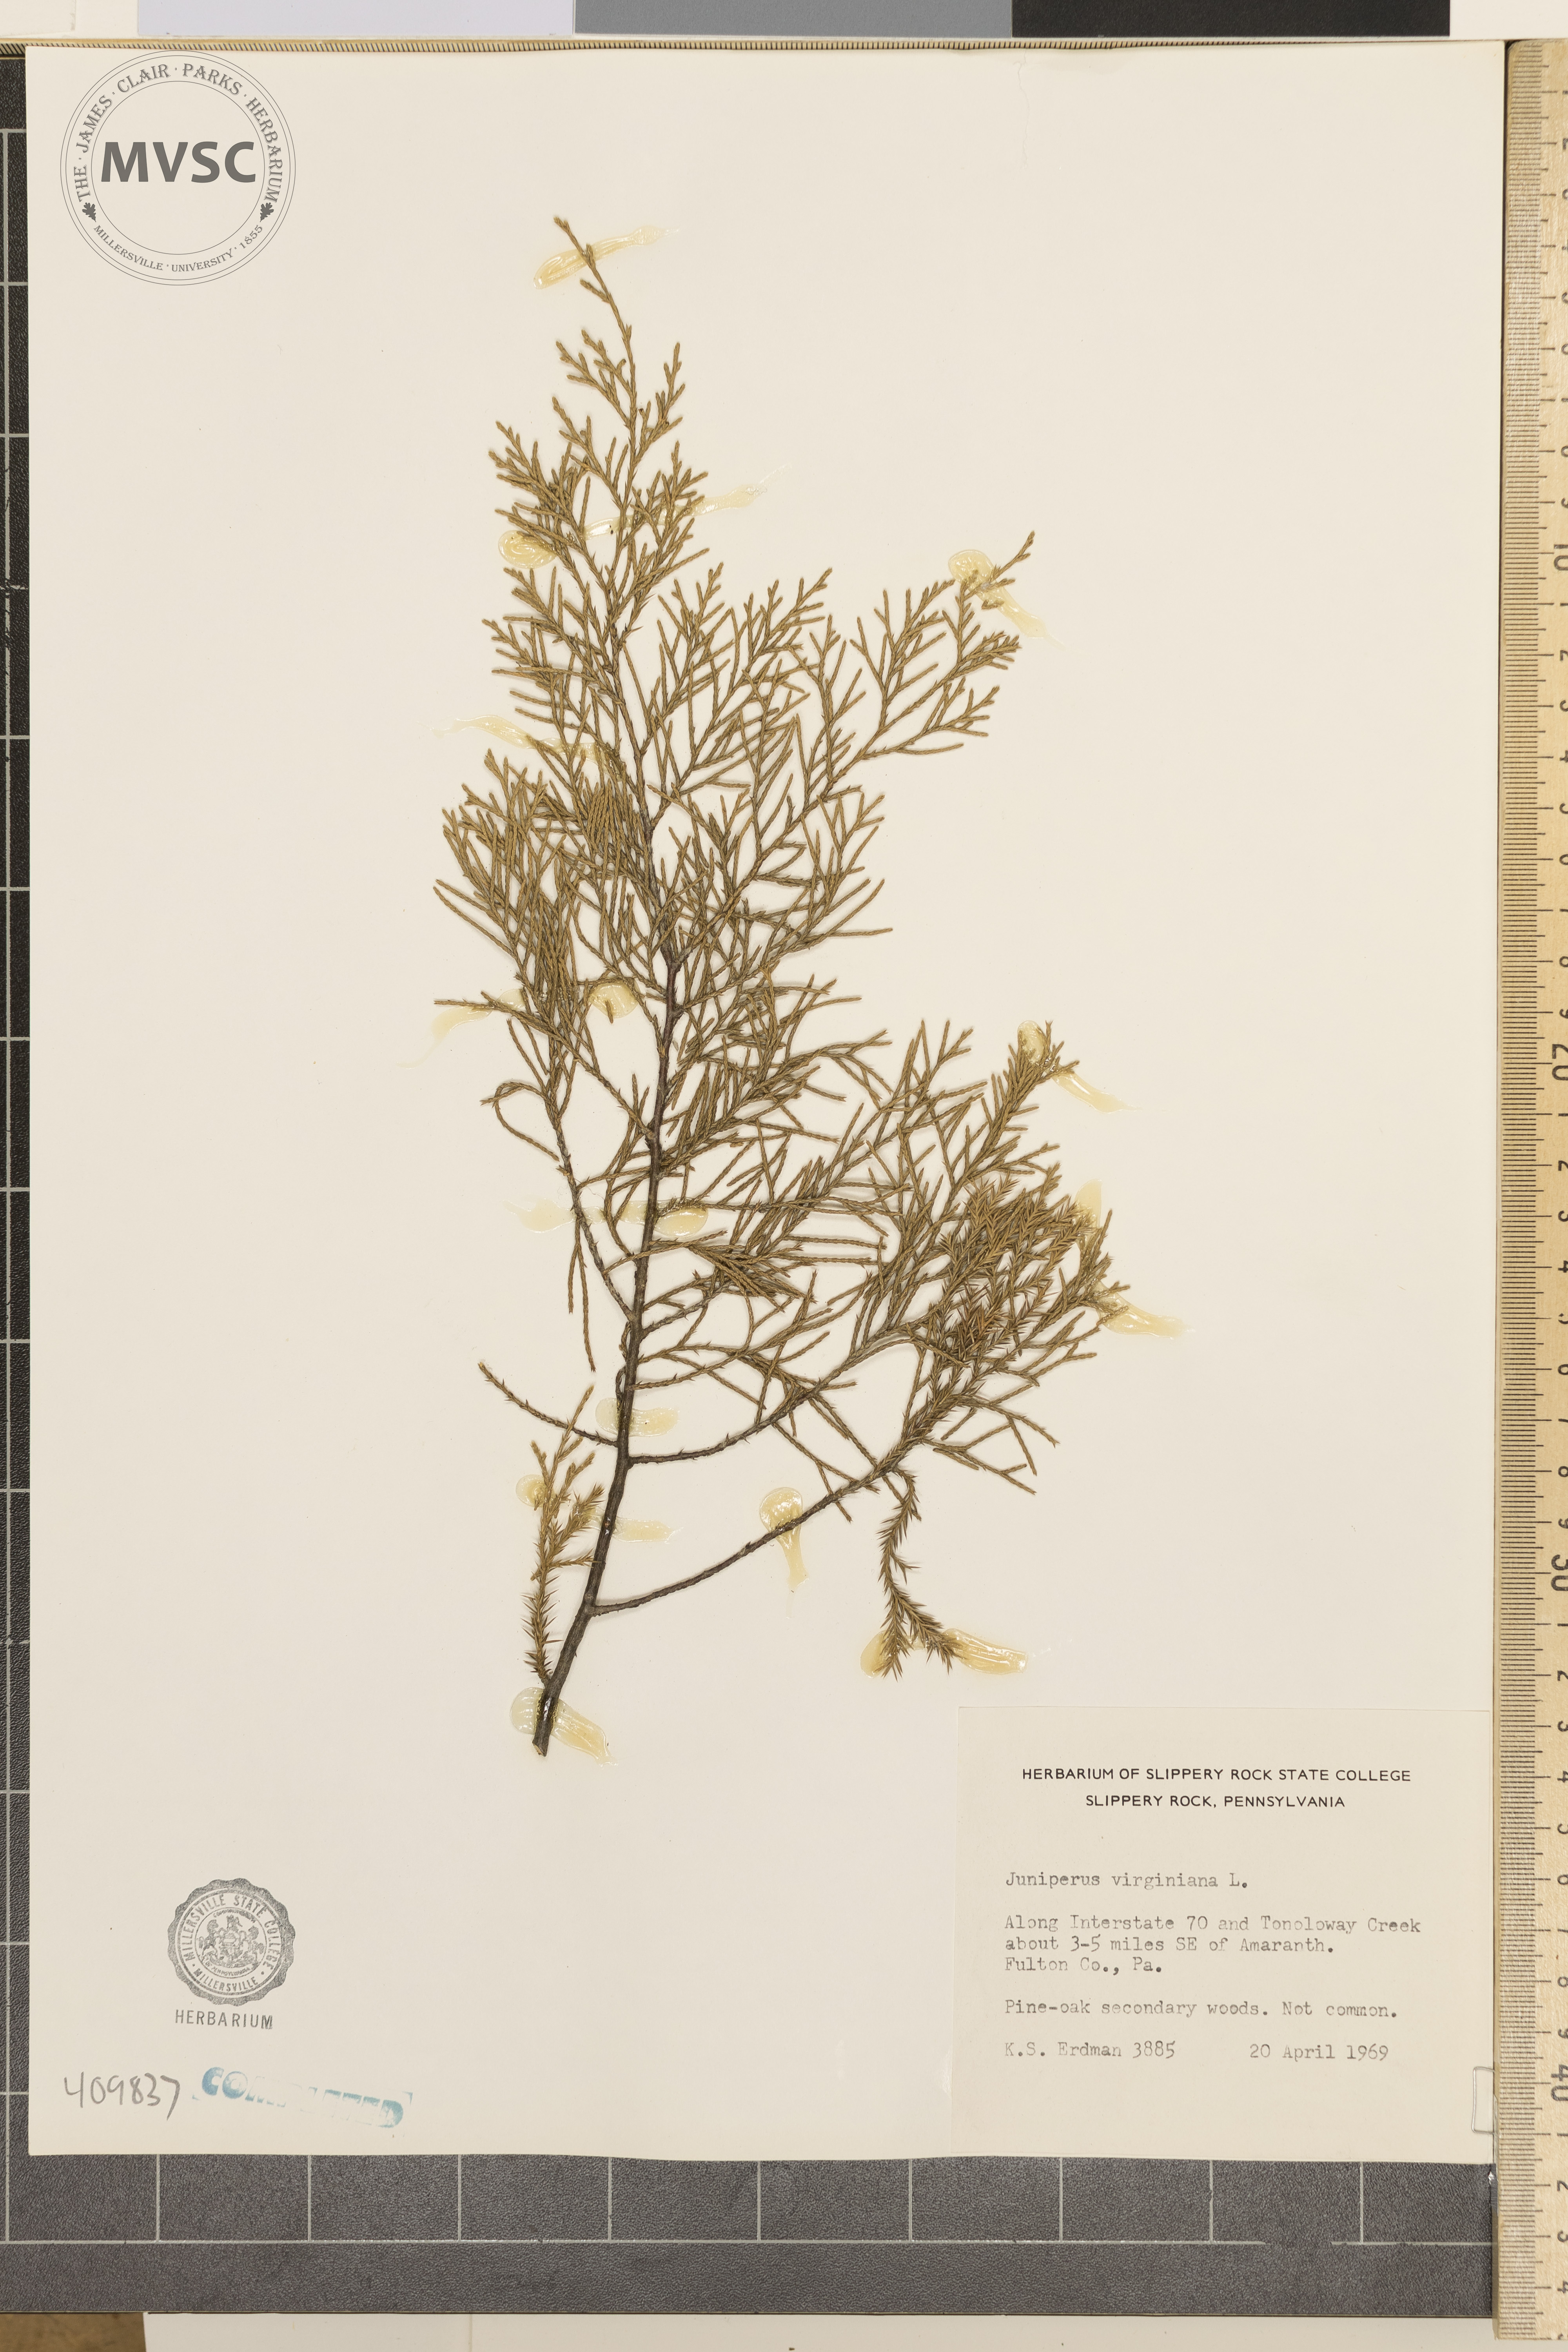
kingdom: Plantae
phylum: Tracheophyta
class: Pinopsida
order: Pinales
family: Cupressaceae
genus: Juniperus
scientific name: Juniperus virginiana
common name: Red juniper
